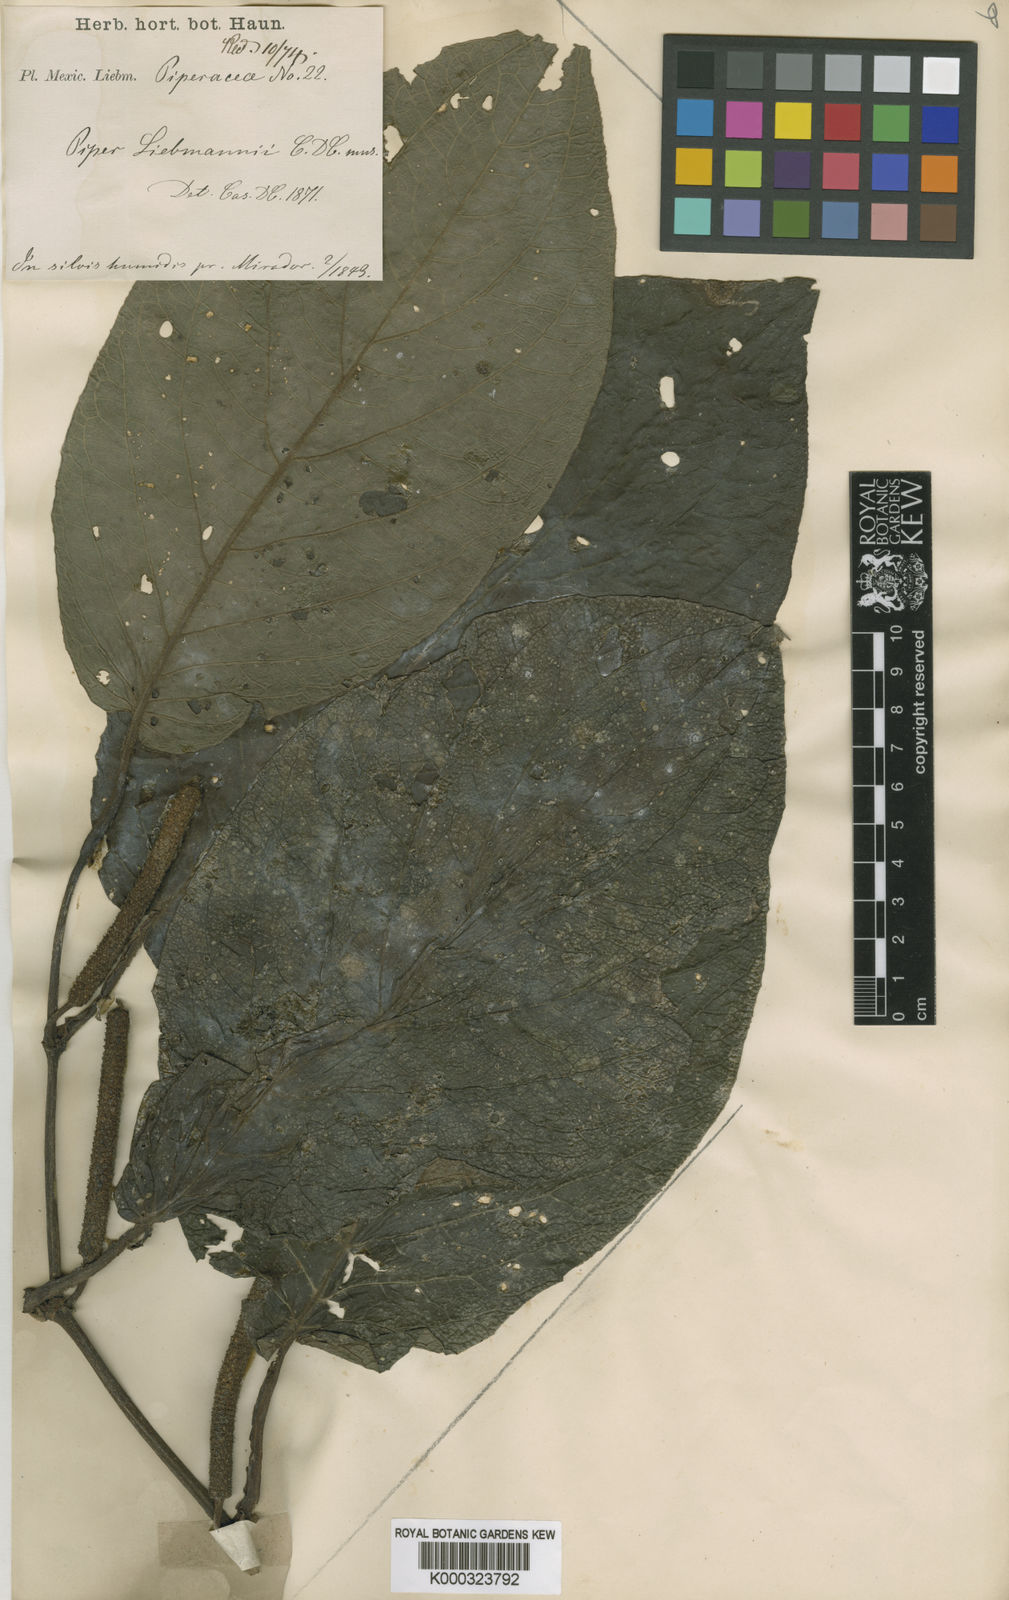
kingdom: Plantae
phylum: Tracheophyta
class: Magnoliopsida
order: Piperales
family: Piperaceae
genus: Piper
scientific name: Piper lapathifolium
